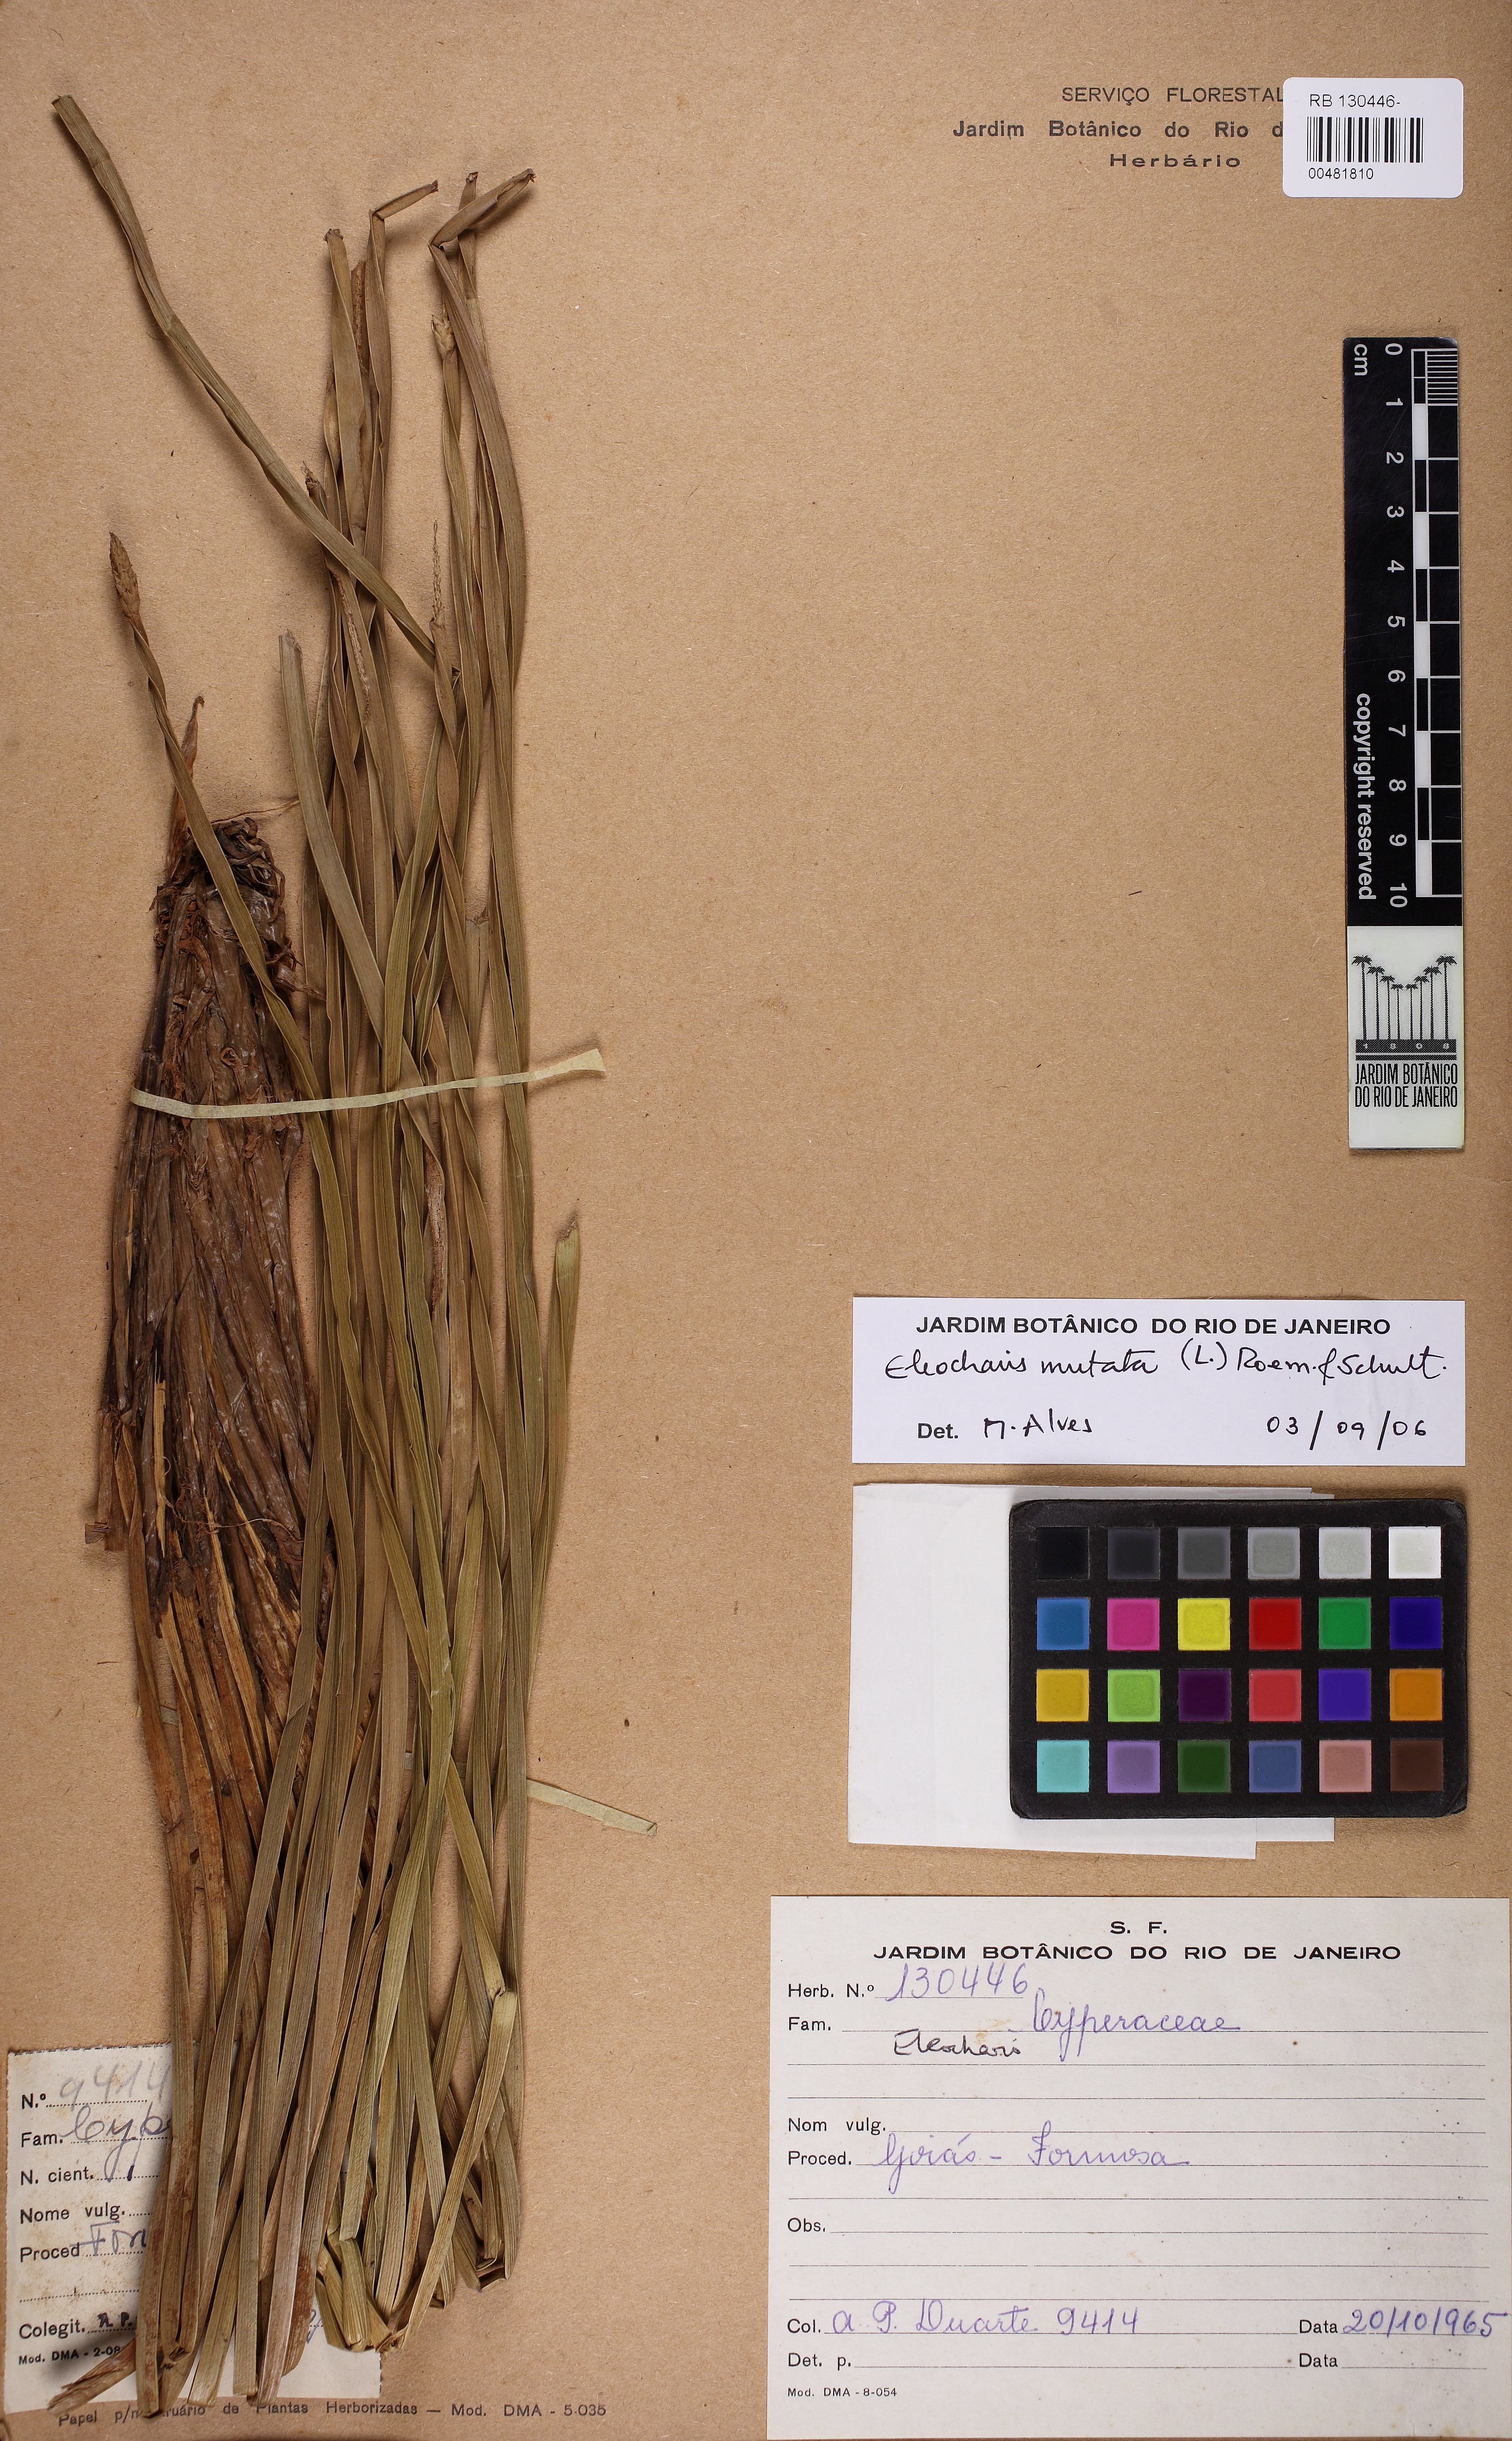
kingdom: Plantae
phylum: Tracheophyta
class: Liliopsida
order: Poales
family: Cyperaceae
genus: Eleocharis
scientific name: Eleocharis mutata
